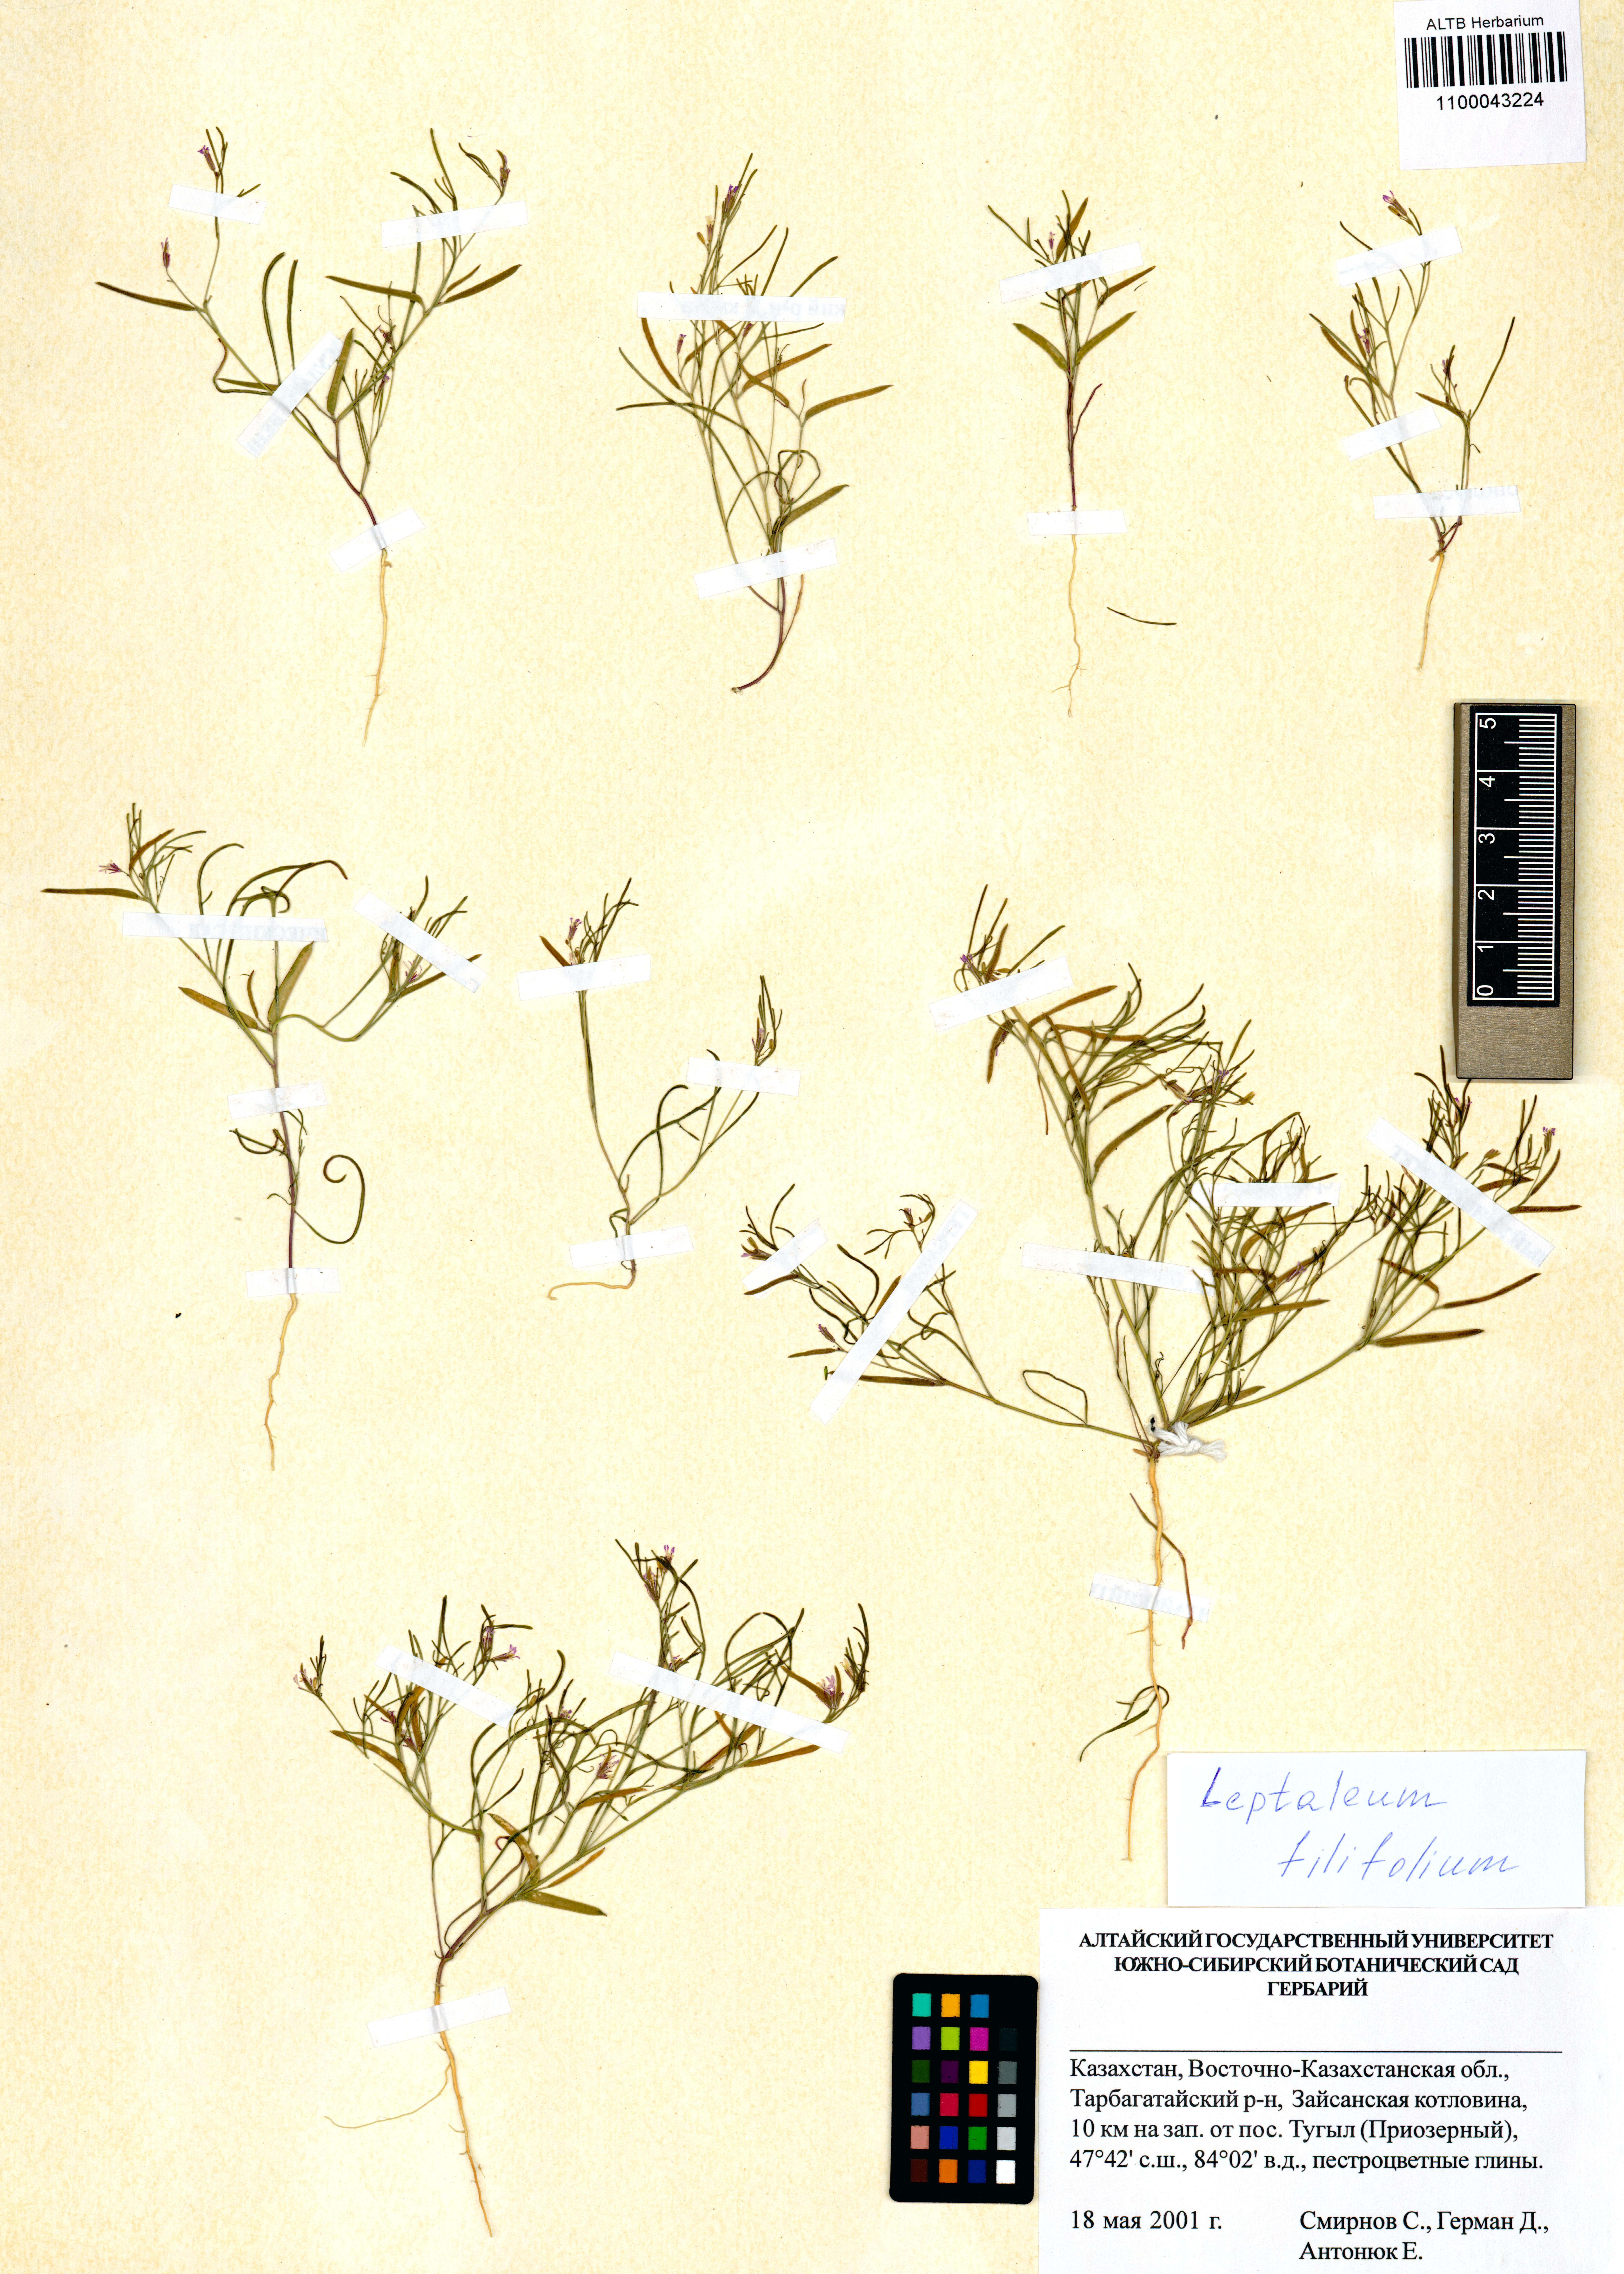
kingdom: Plantae
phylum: Tracheophyta
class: Magnoliopsida
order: Brassicales
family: Brassicaceae
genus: Leptaleum
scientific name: Leptaleum filifolium
